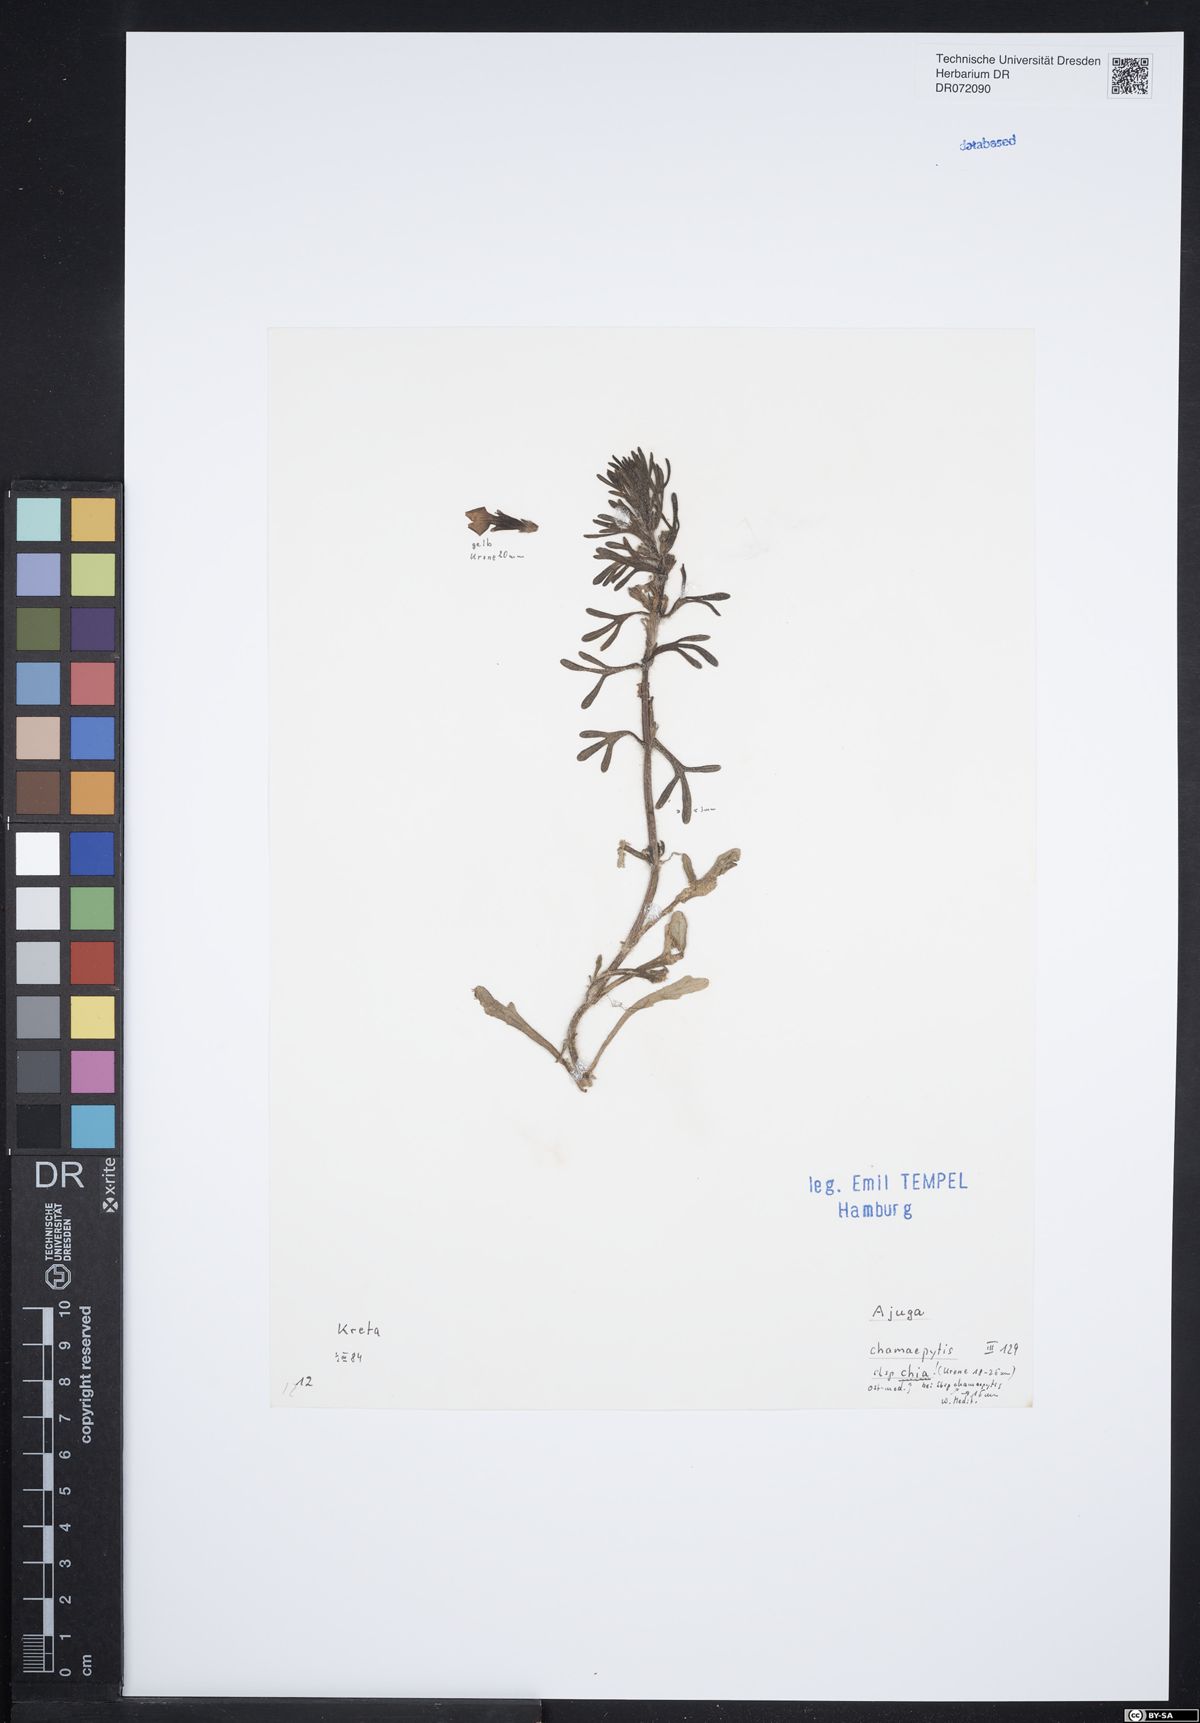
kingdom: Plantae
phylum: Tracheophyta
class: Magnoliopsida
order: Lamiales
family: Lamiaceae
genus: Ajuga
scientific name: Ajuga chamaepitys
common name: Ground-pine
